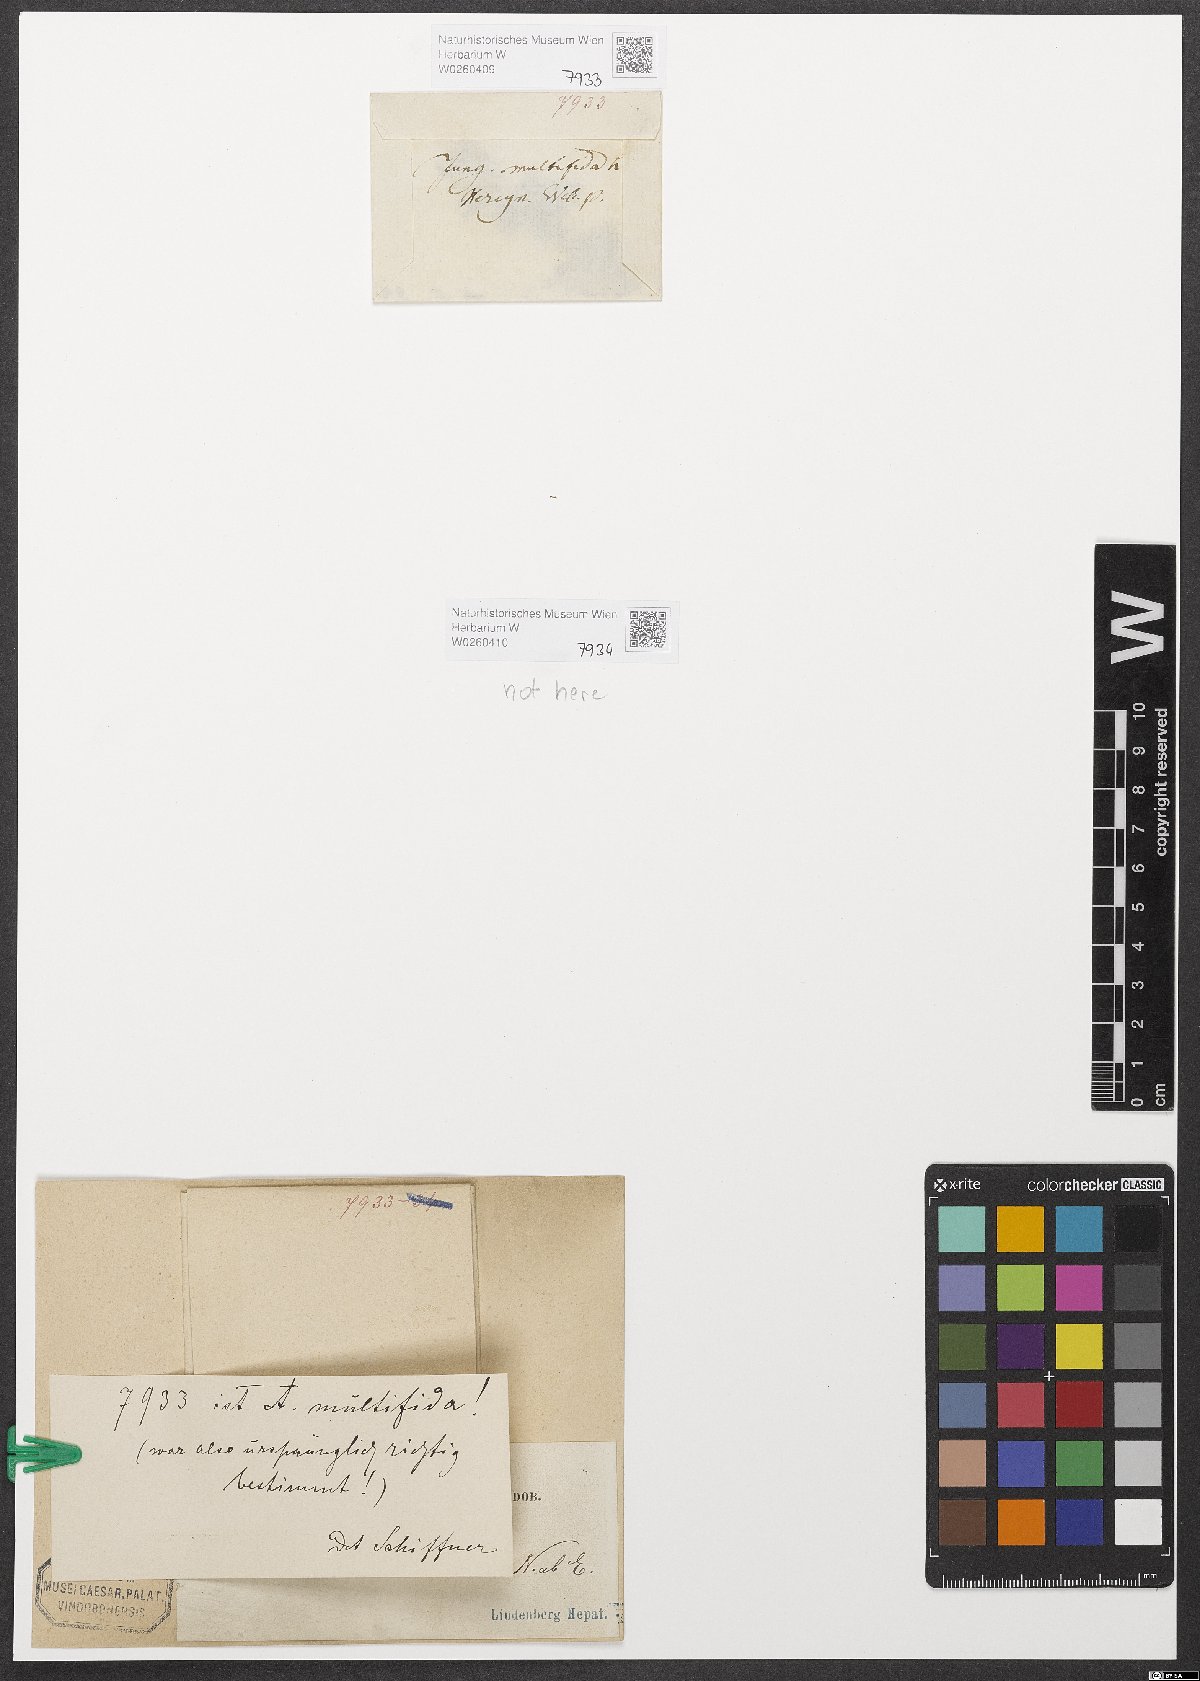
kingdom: Plantae
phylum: Marchantiophyta
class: Jungermanniopsida
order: Metzgeriales
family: Aneuraceae
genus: Riccardia
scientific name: Riccardia multifida
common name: Delicate germanderwort
